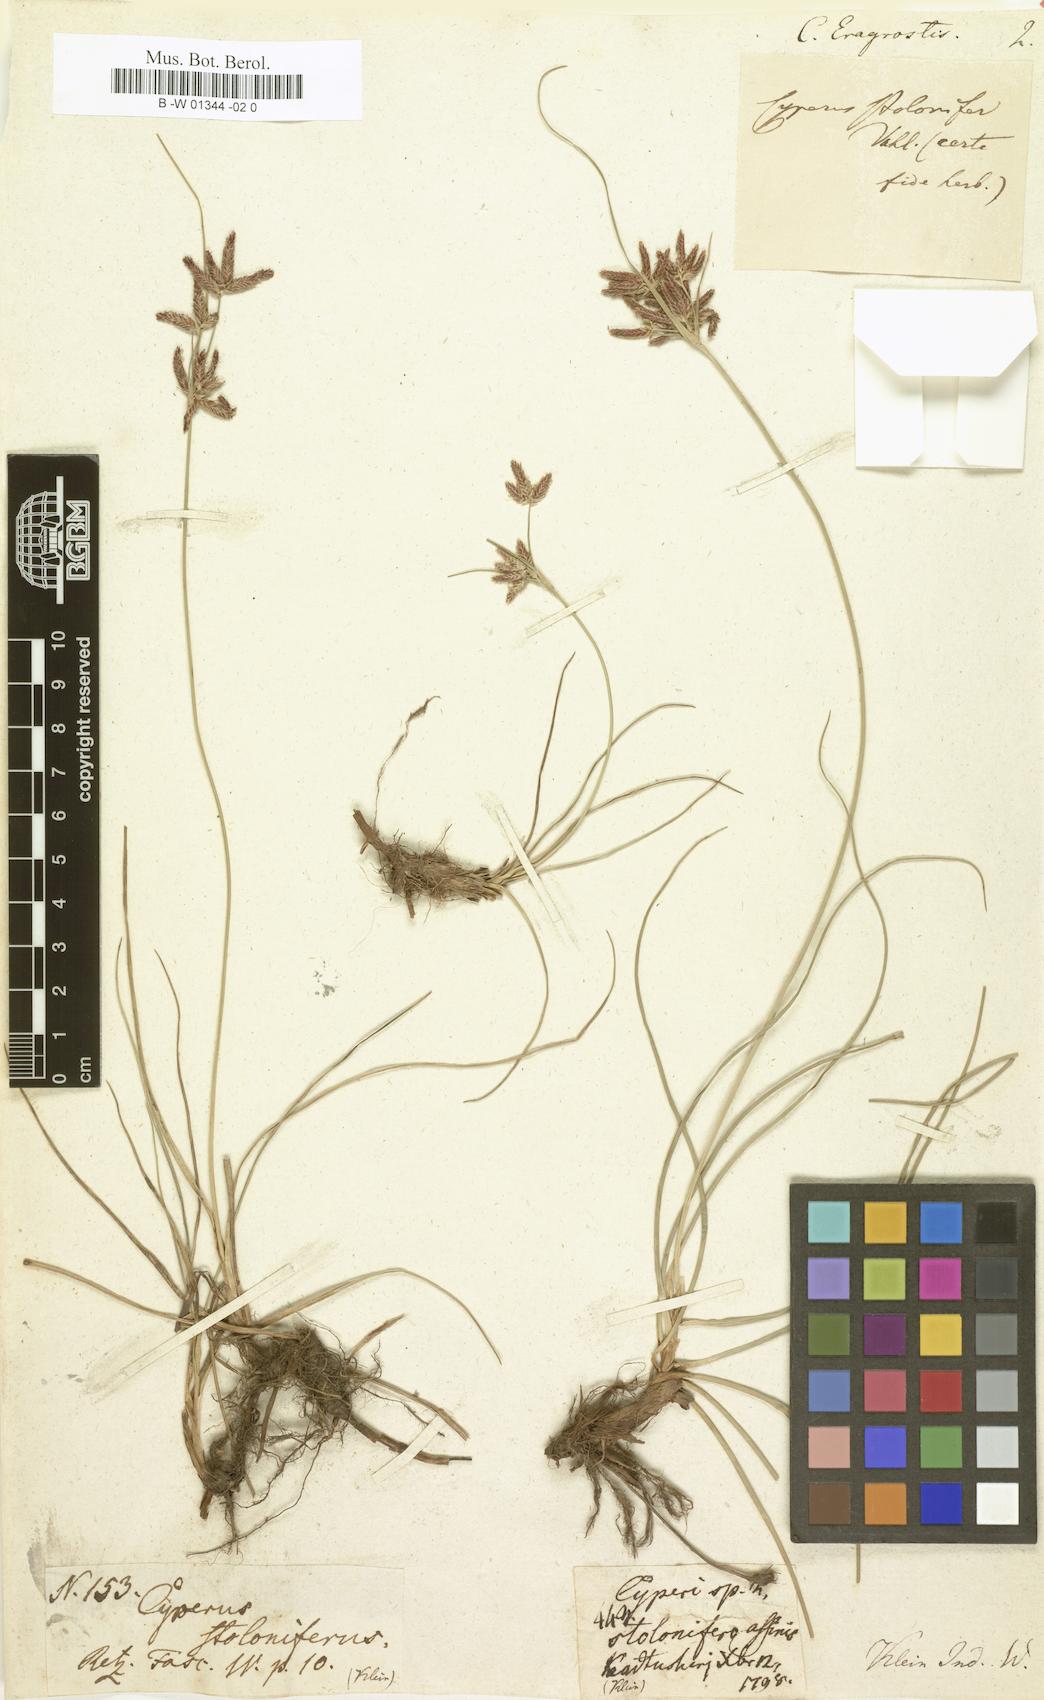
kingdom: Plantae
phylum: Tracheophyta
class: Liliopsida
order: Poales
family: Cyperaceae
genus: Cyperus
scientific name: Cyperus eragrostis
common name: Tall flatsedge
